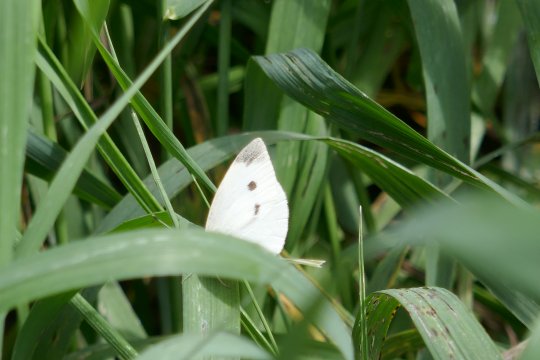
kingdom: Animalia
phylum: Arthropoda
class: Insecta
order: Lepidoptera
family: Pieridae
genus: Pieris
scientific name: Pieris rapae
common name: Cabbage White
